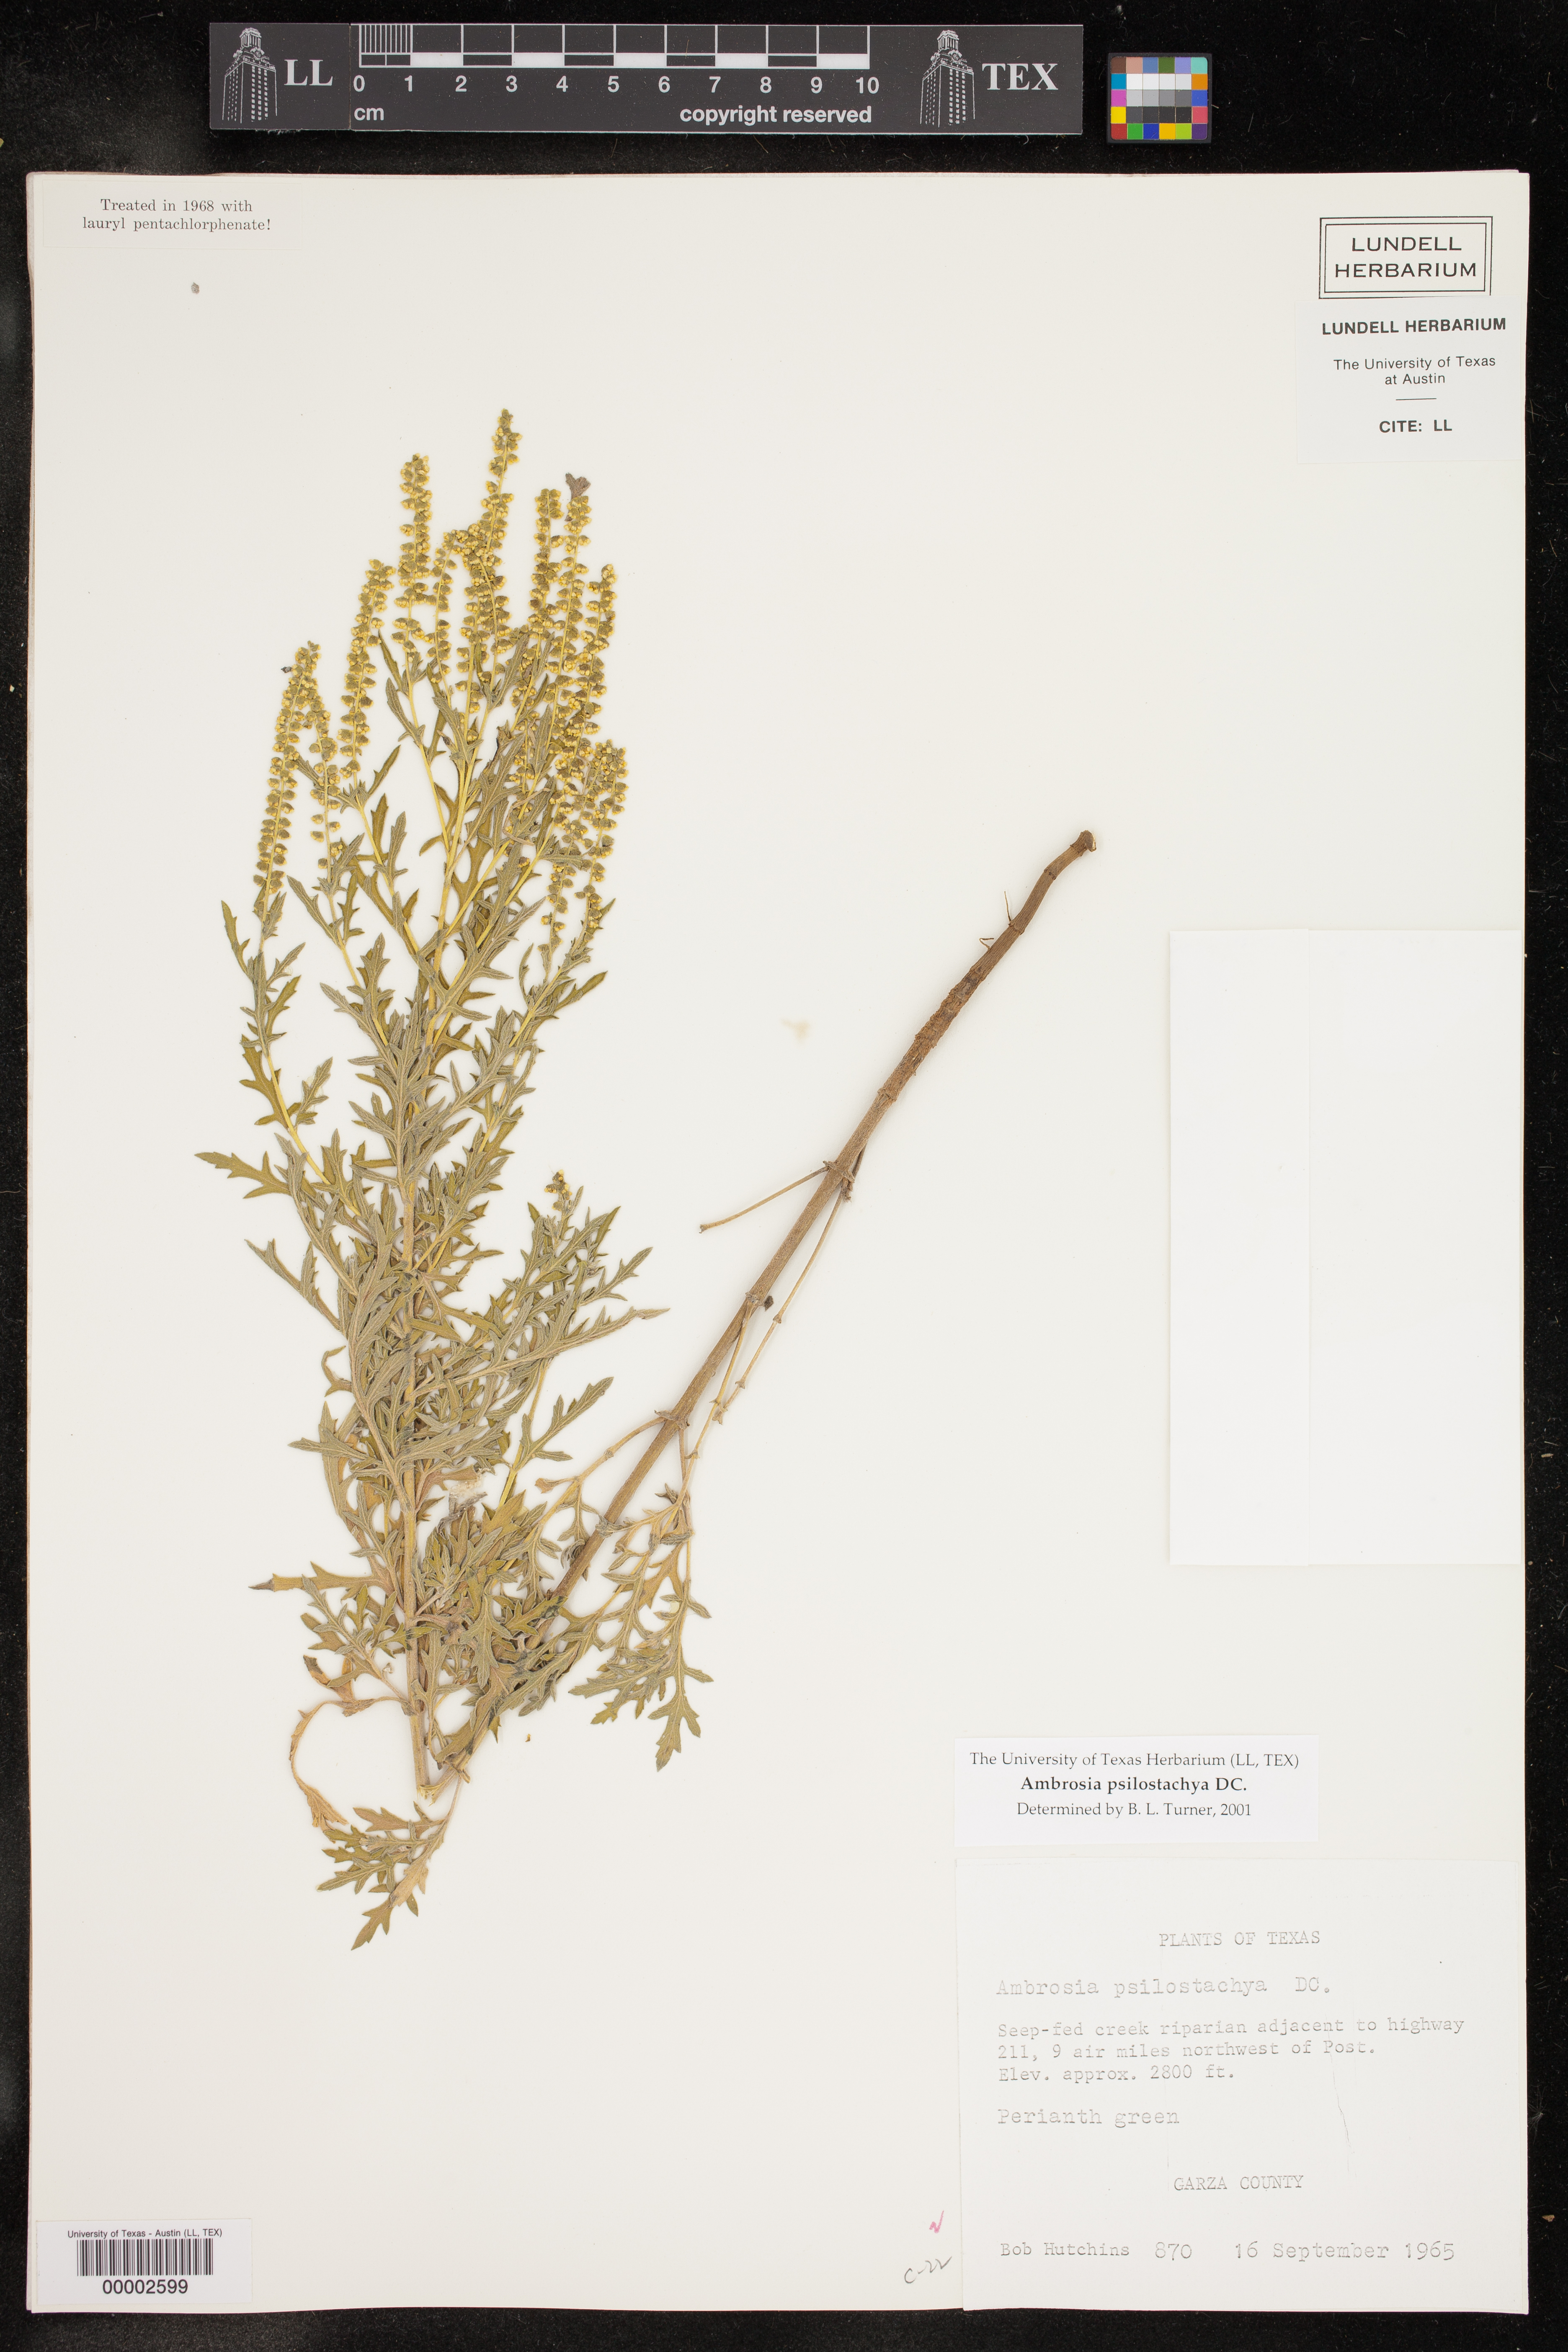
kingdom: Plantae
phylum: Tracheophyta
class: Magnoliopsida
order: Asterales
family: Asteraceae
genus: Ambrosia
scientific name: Ambrosia psilostachya
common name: Perennial ragweed
